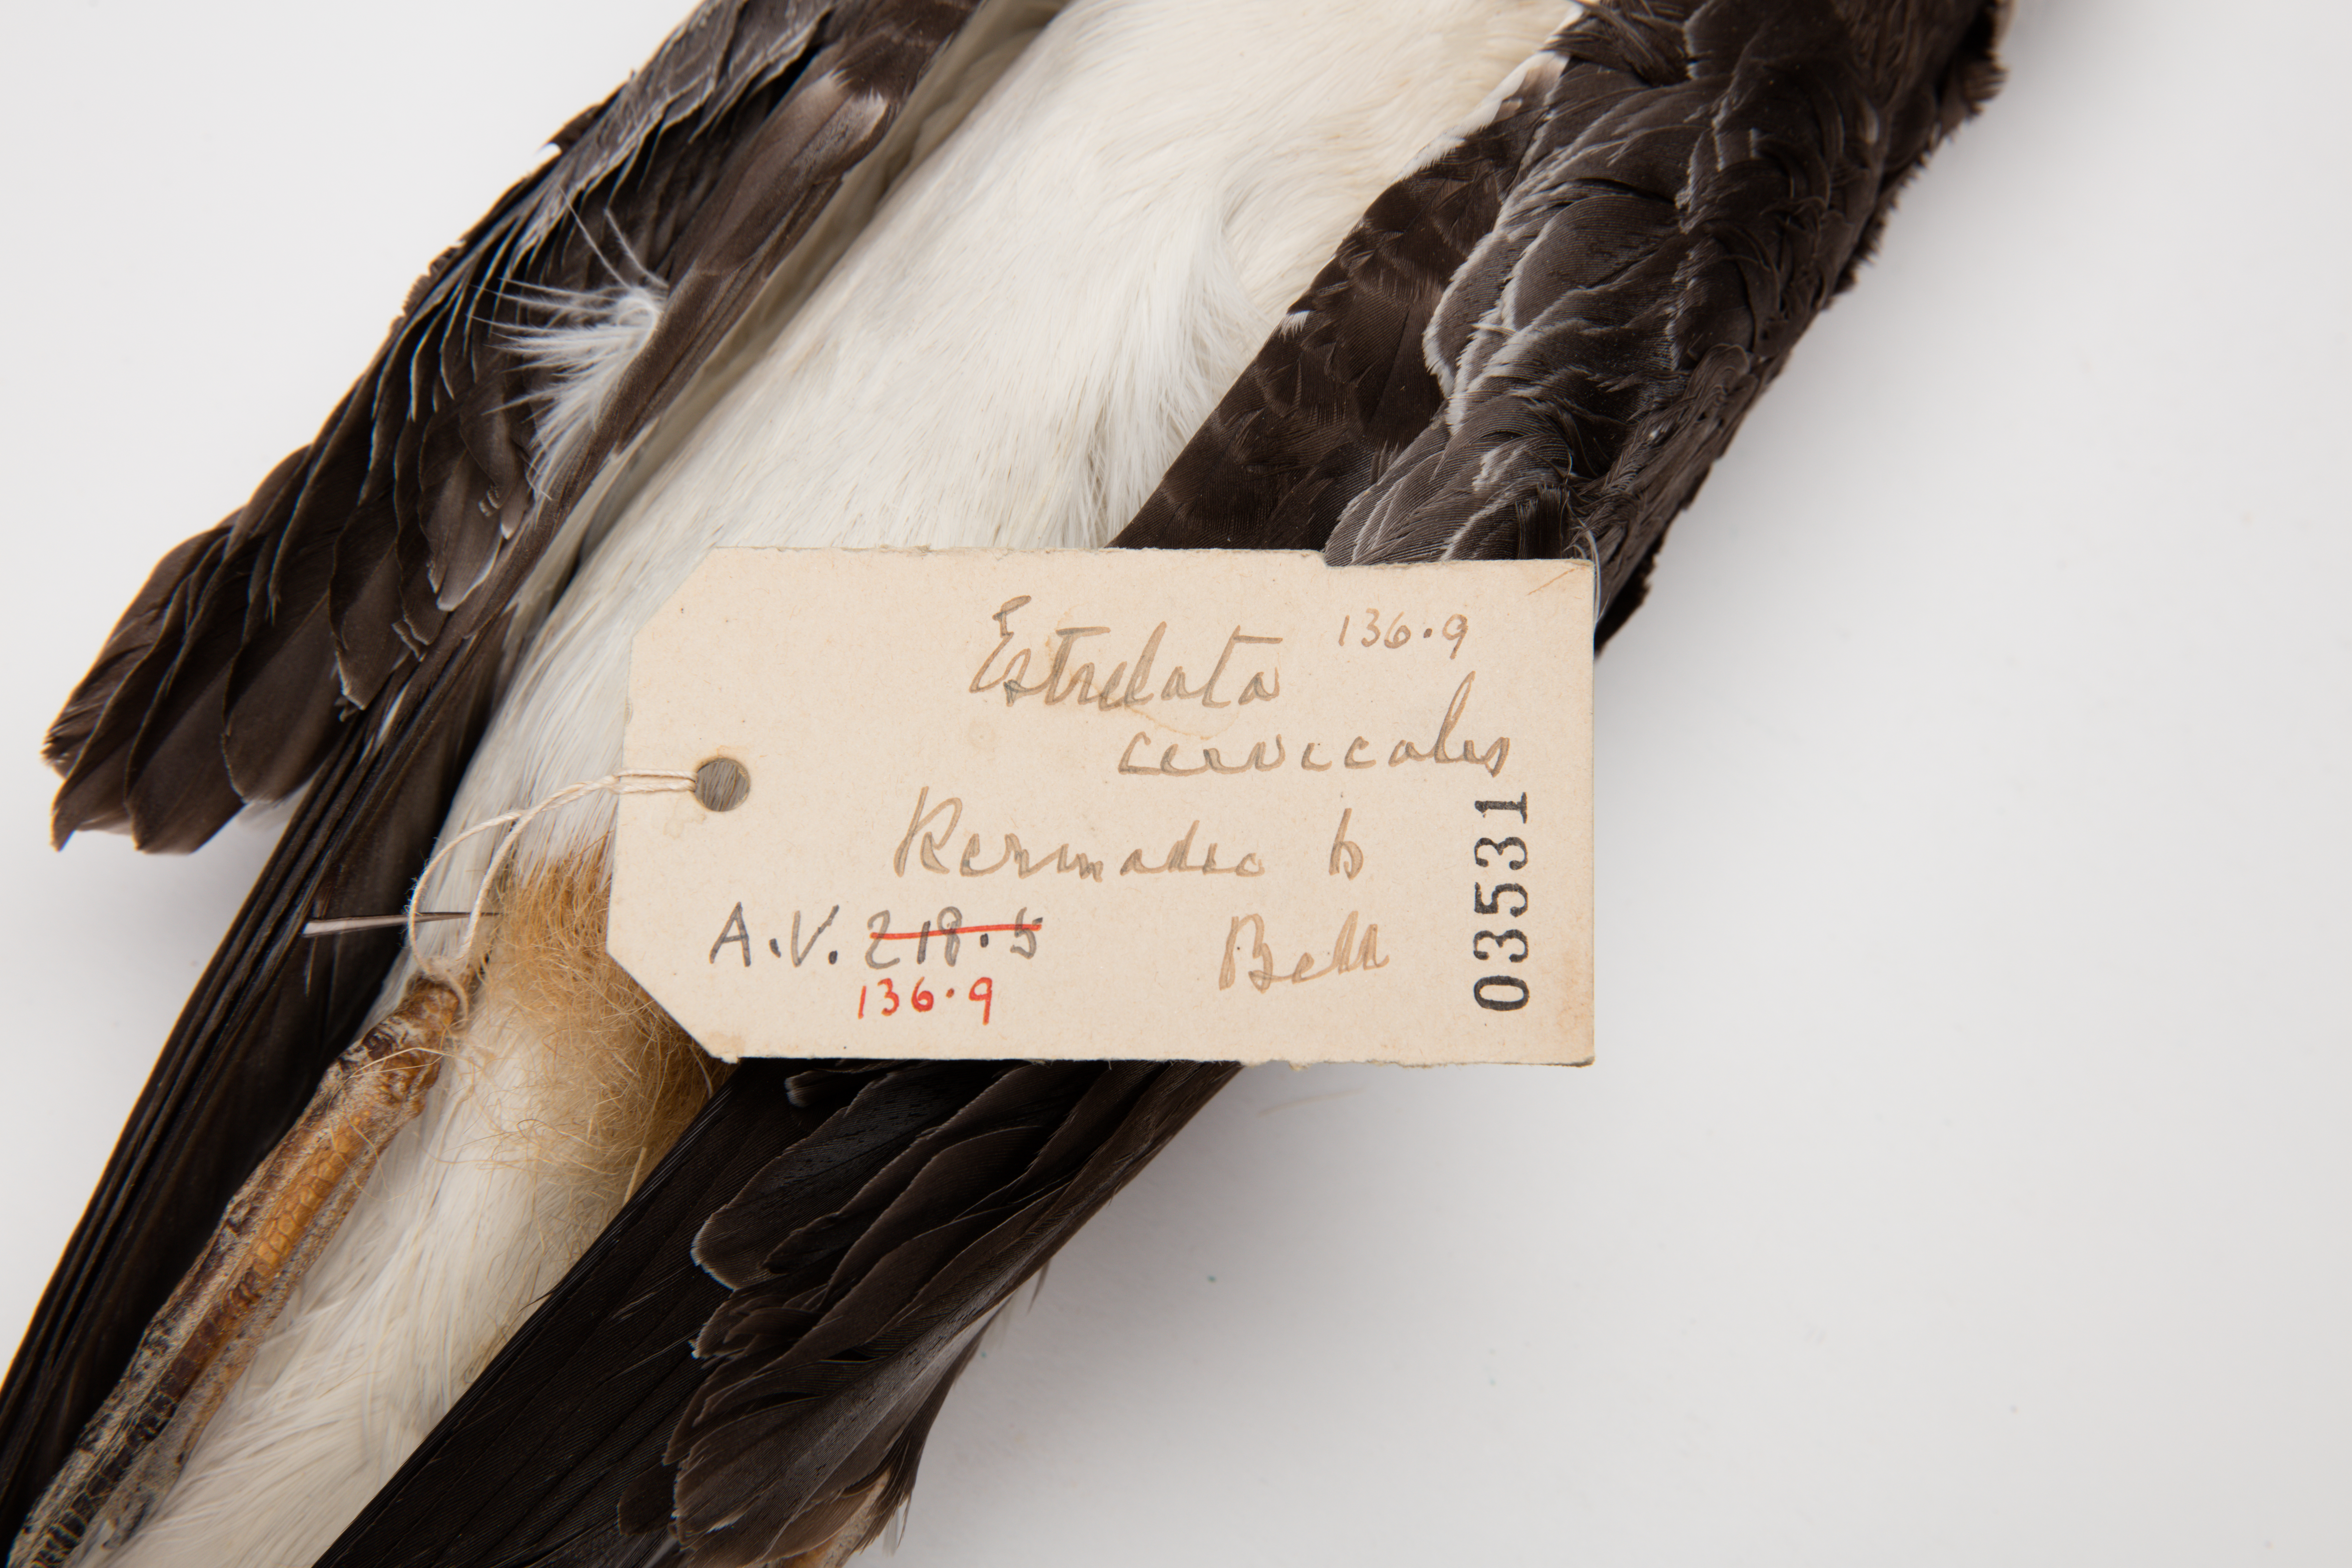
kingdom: Animalia
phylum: Chordata
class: Aves
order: Procellariiformes
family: Procellariidae
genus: Pterodroma
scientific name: Pterodroma cervicalis
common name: White-necked petrel
